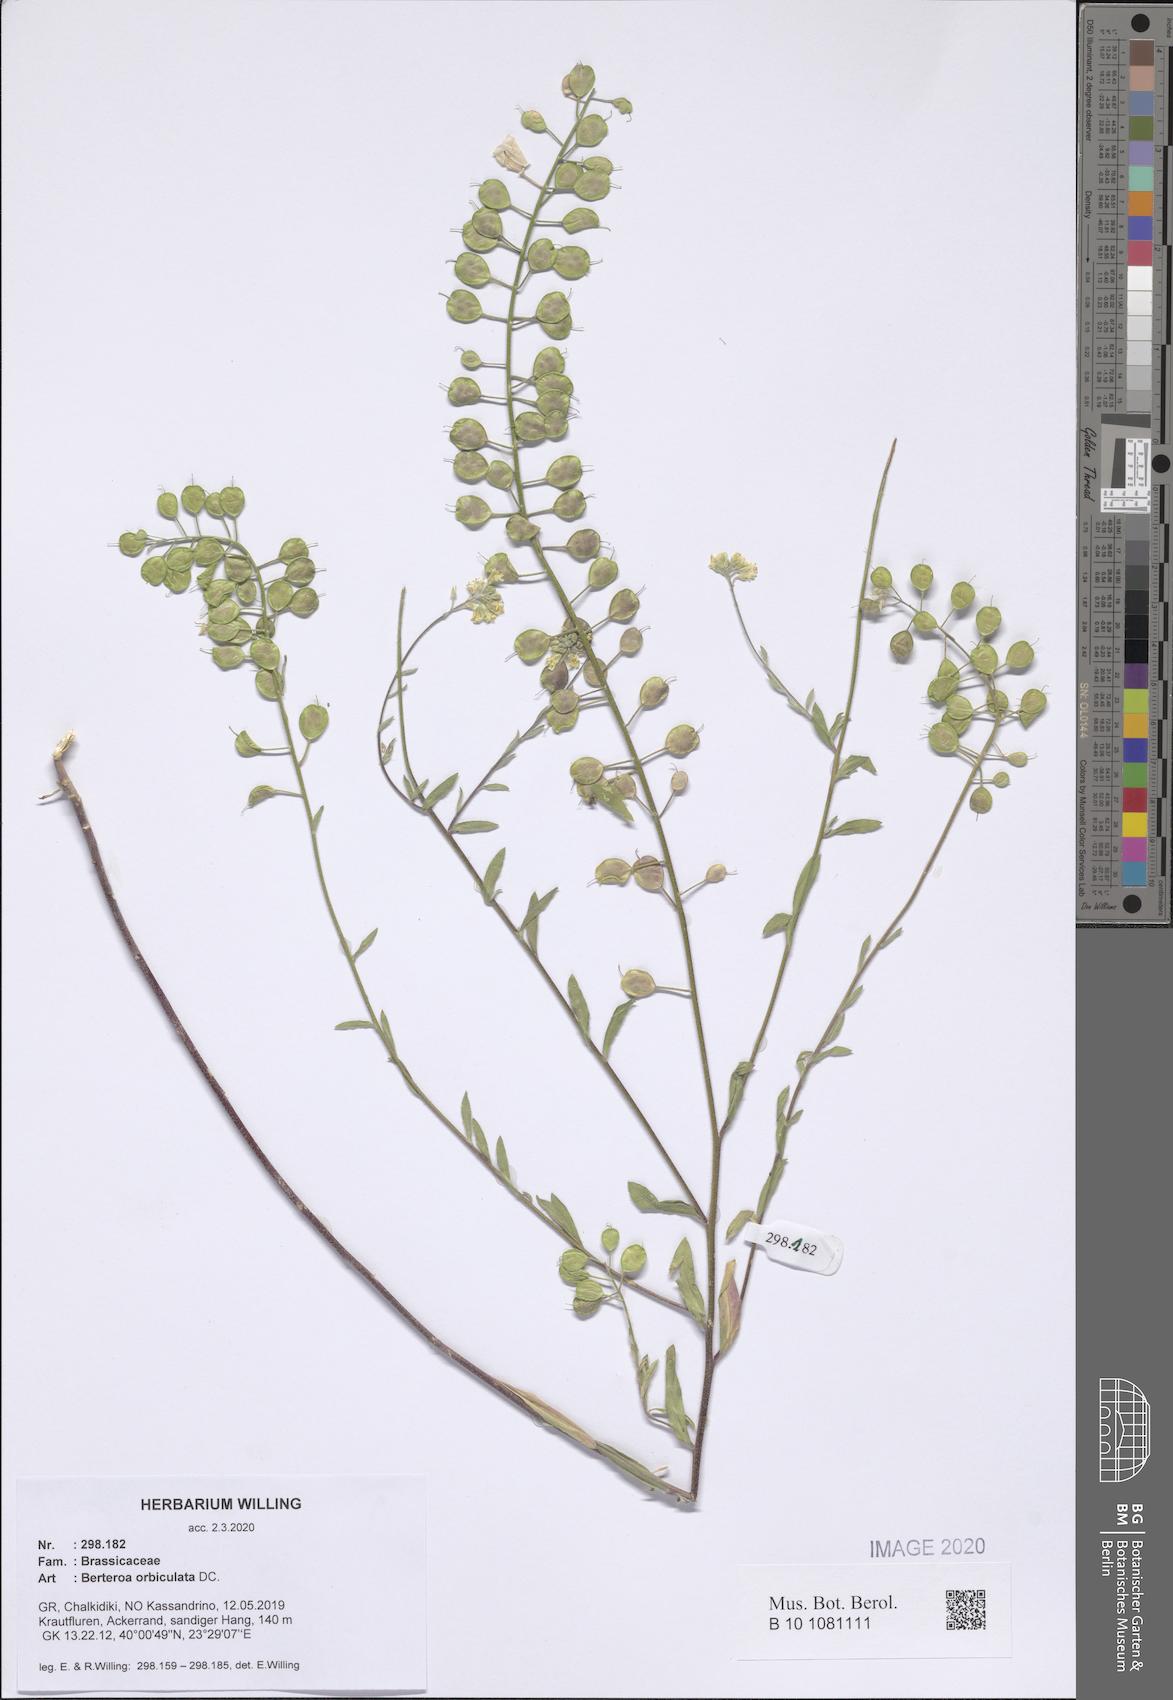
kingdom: Plantae
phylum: Tracheophyta
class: Magnoliopsida
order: Brassicales
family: Brassicaceae
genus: Berteroa
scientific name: Berteroa orbiculata
